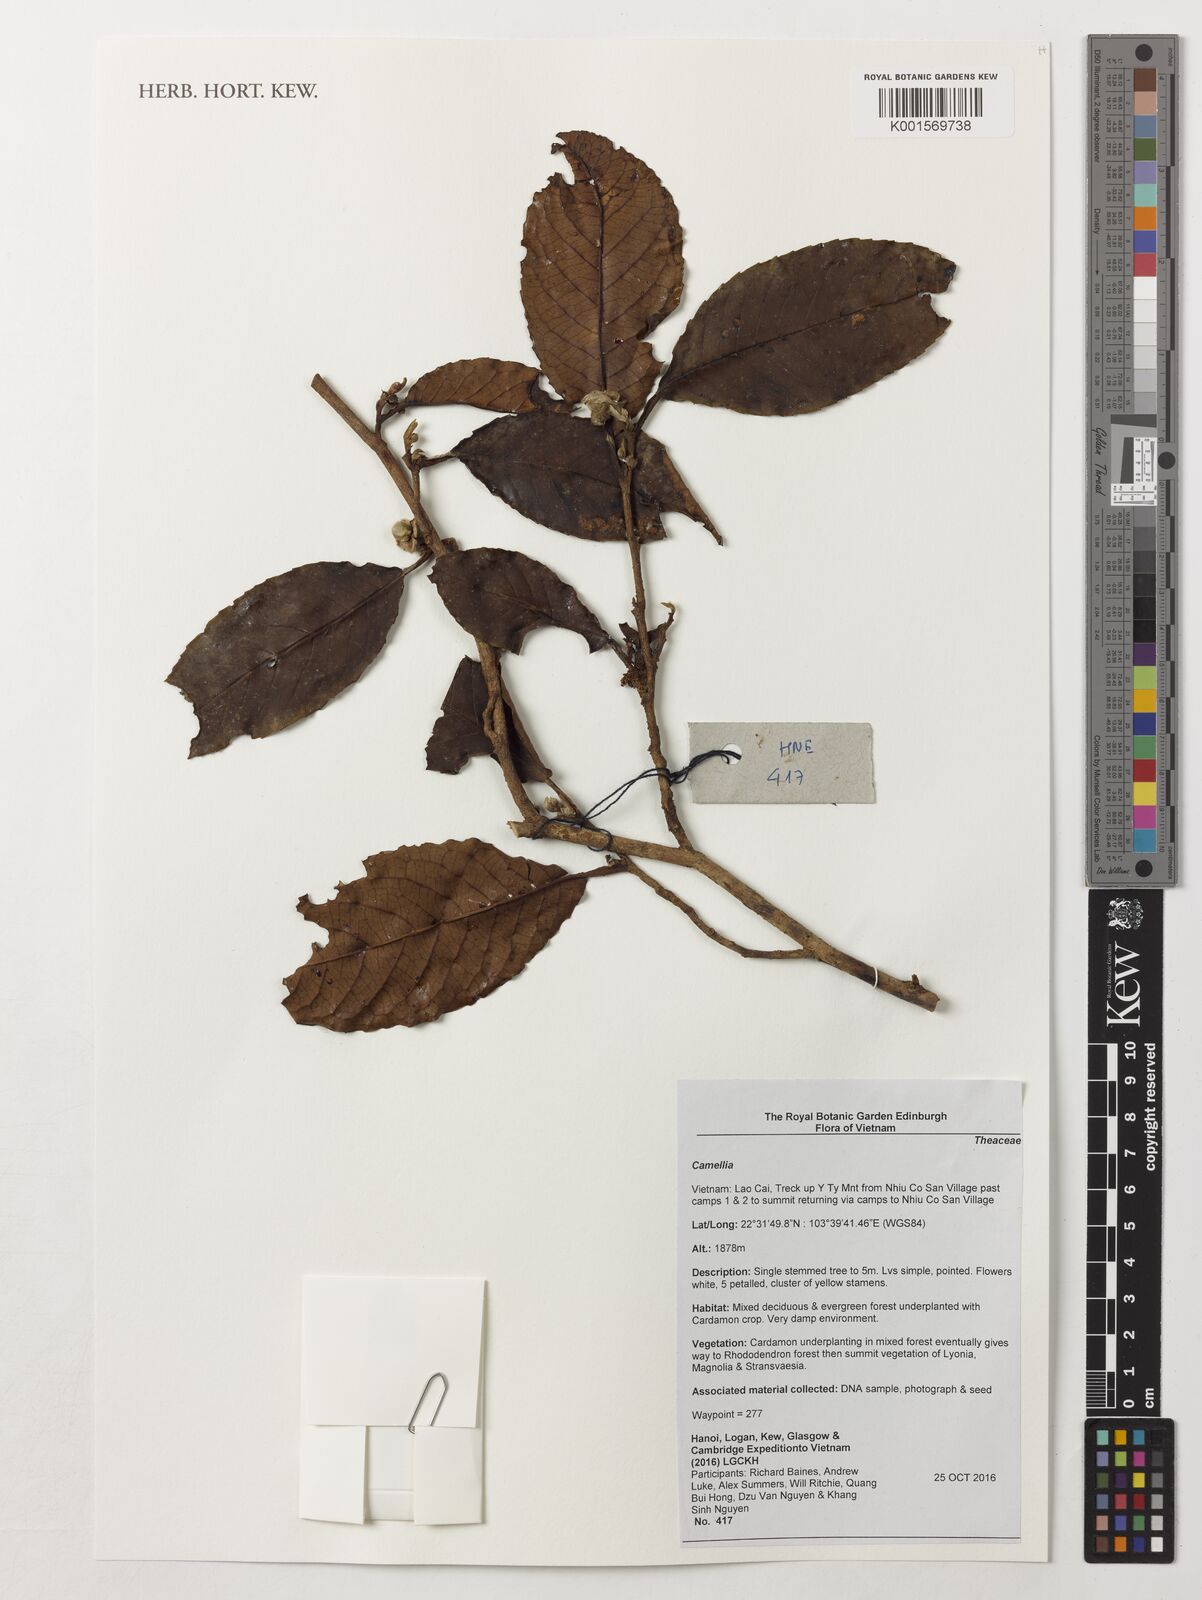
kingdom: Plantae
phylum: Tracheophyta
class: Magnoliopsida
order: Ericales
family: Theaceae
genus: Camellia
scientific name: Camellia
